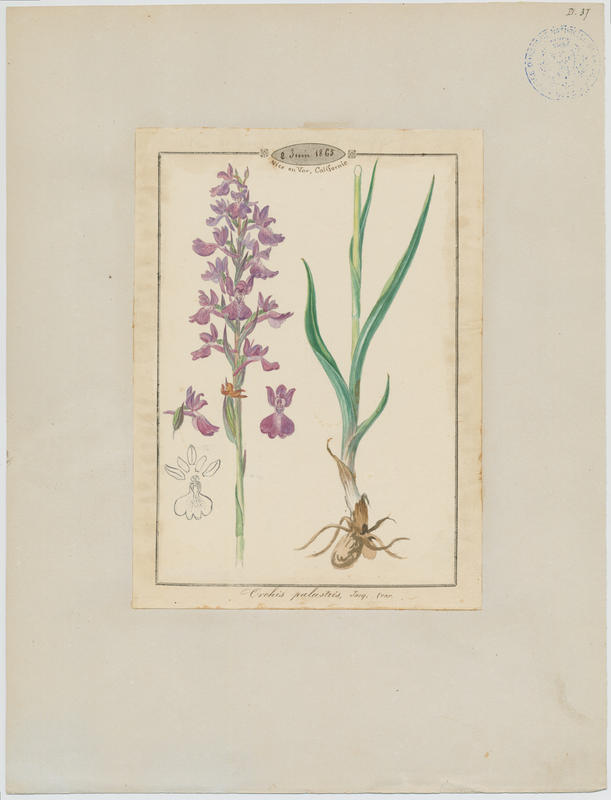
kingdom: Plantae
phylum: Tracheophyta
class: Liliopsida
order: Asparagales
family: Orchidaceae
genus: Anacamptis
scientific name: Anacamptis palustris
